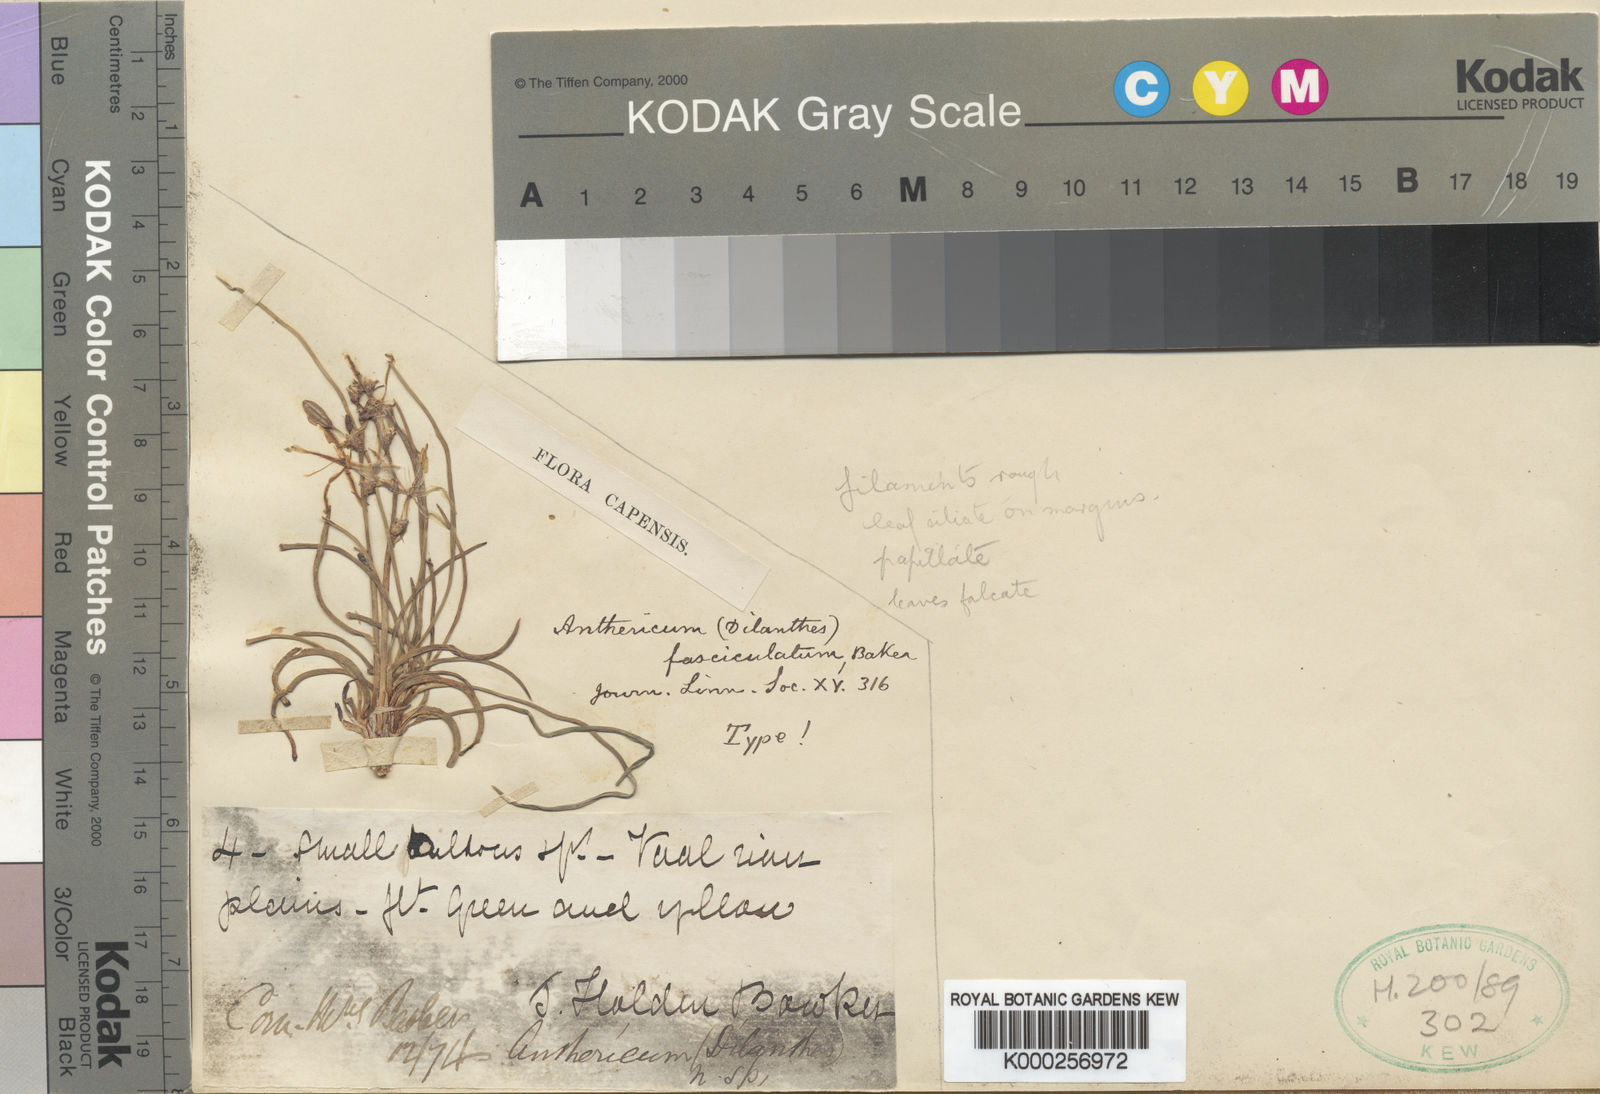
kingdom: Plantae
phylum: Tracheophyta
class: Liliopsida
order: Asparagales
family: Asparagaceae
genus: Chlorophytum
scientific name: Chlorophytum fasciculatum
